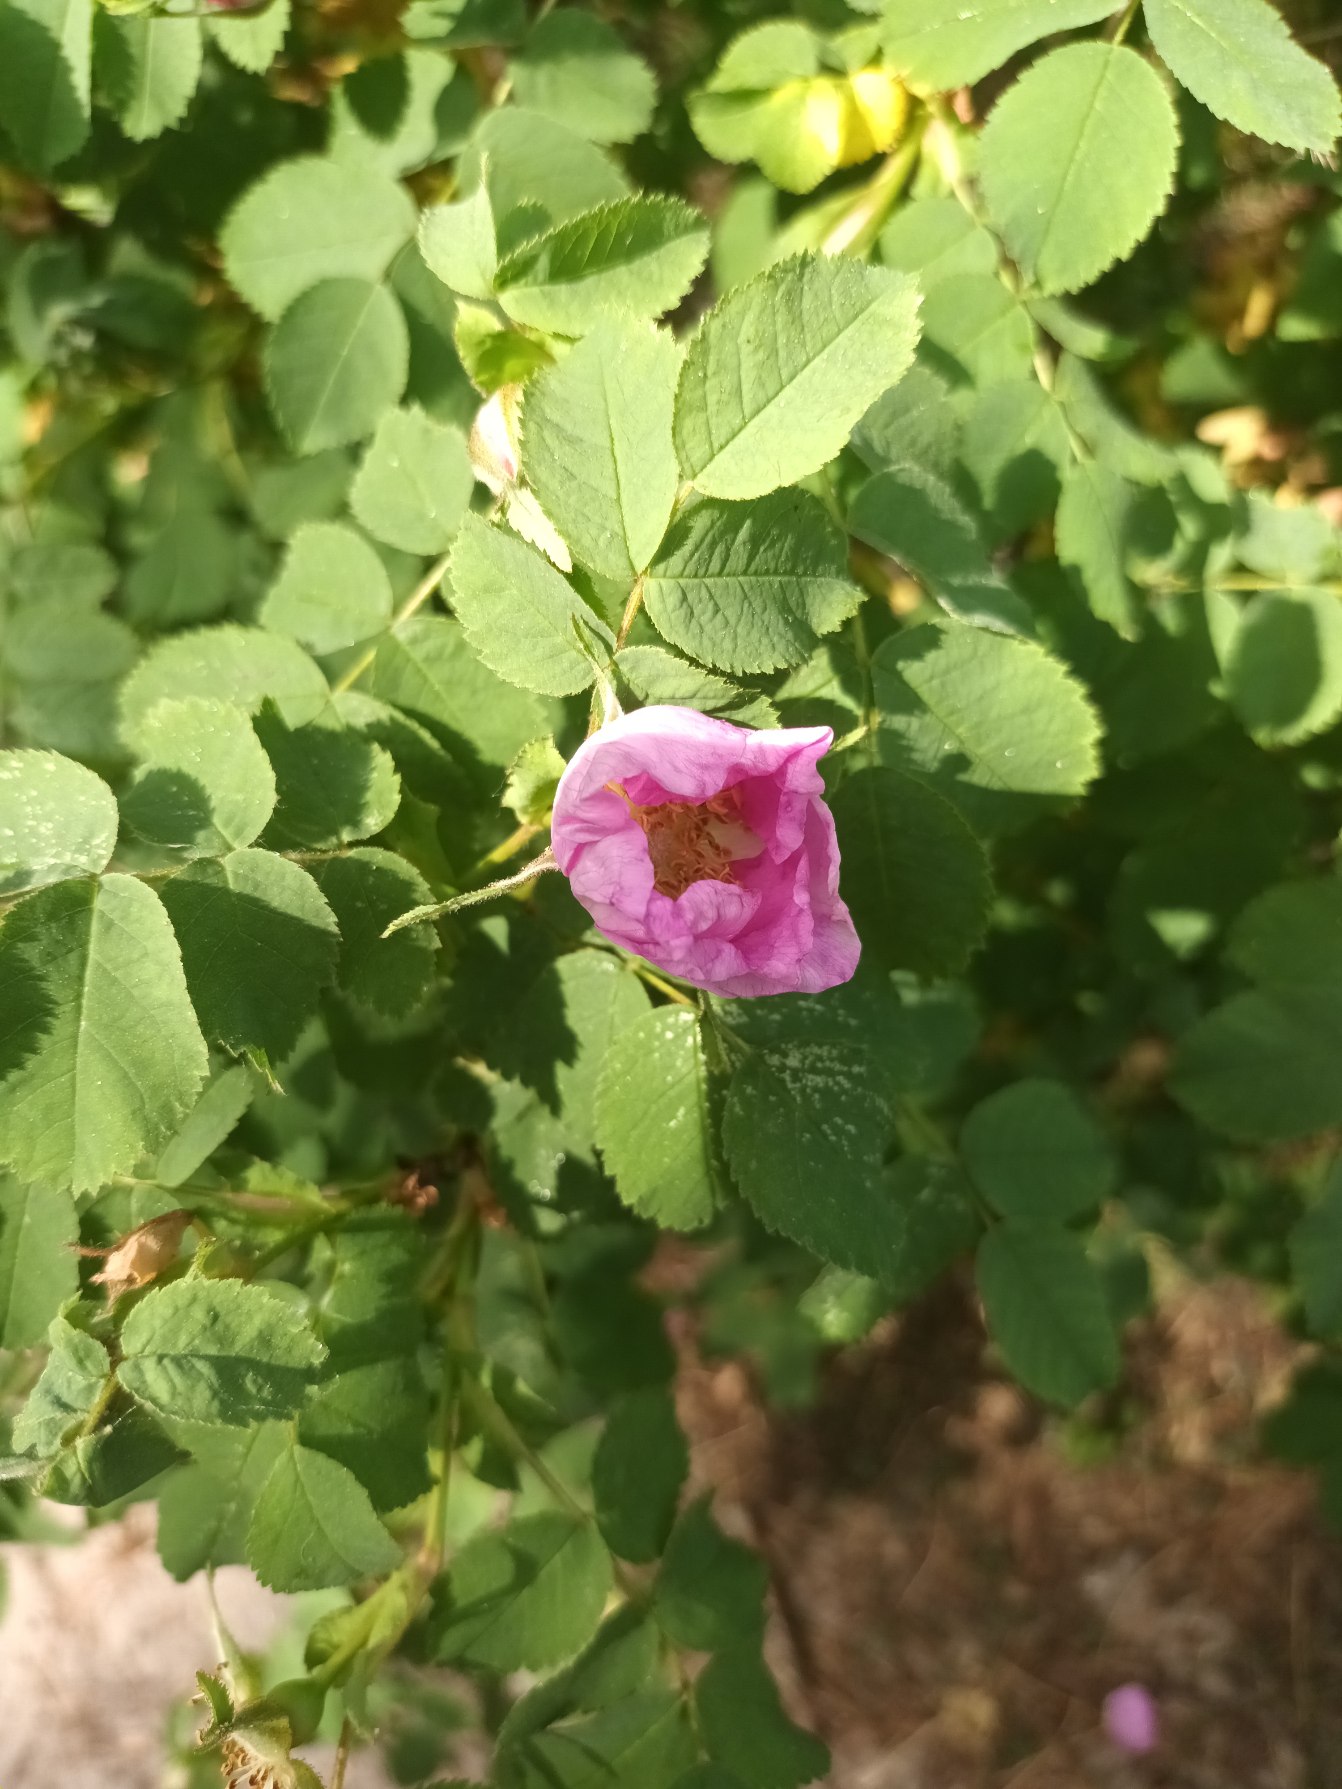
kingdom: Plantae
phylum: Tracheophyta
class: Magnoliopsida
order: Rosales
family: Rosaceae
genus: Rosa
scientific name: Rosa mollis
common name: Blød filt-rose
